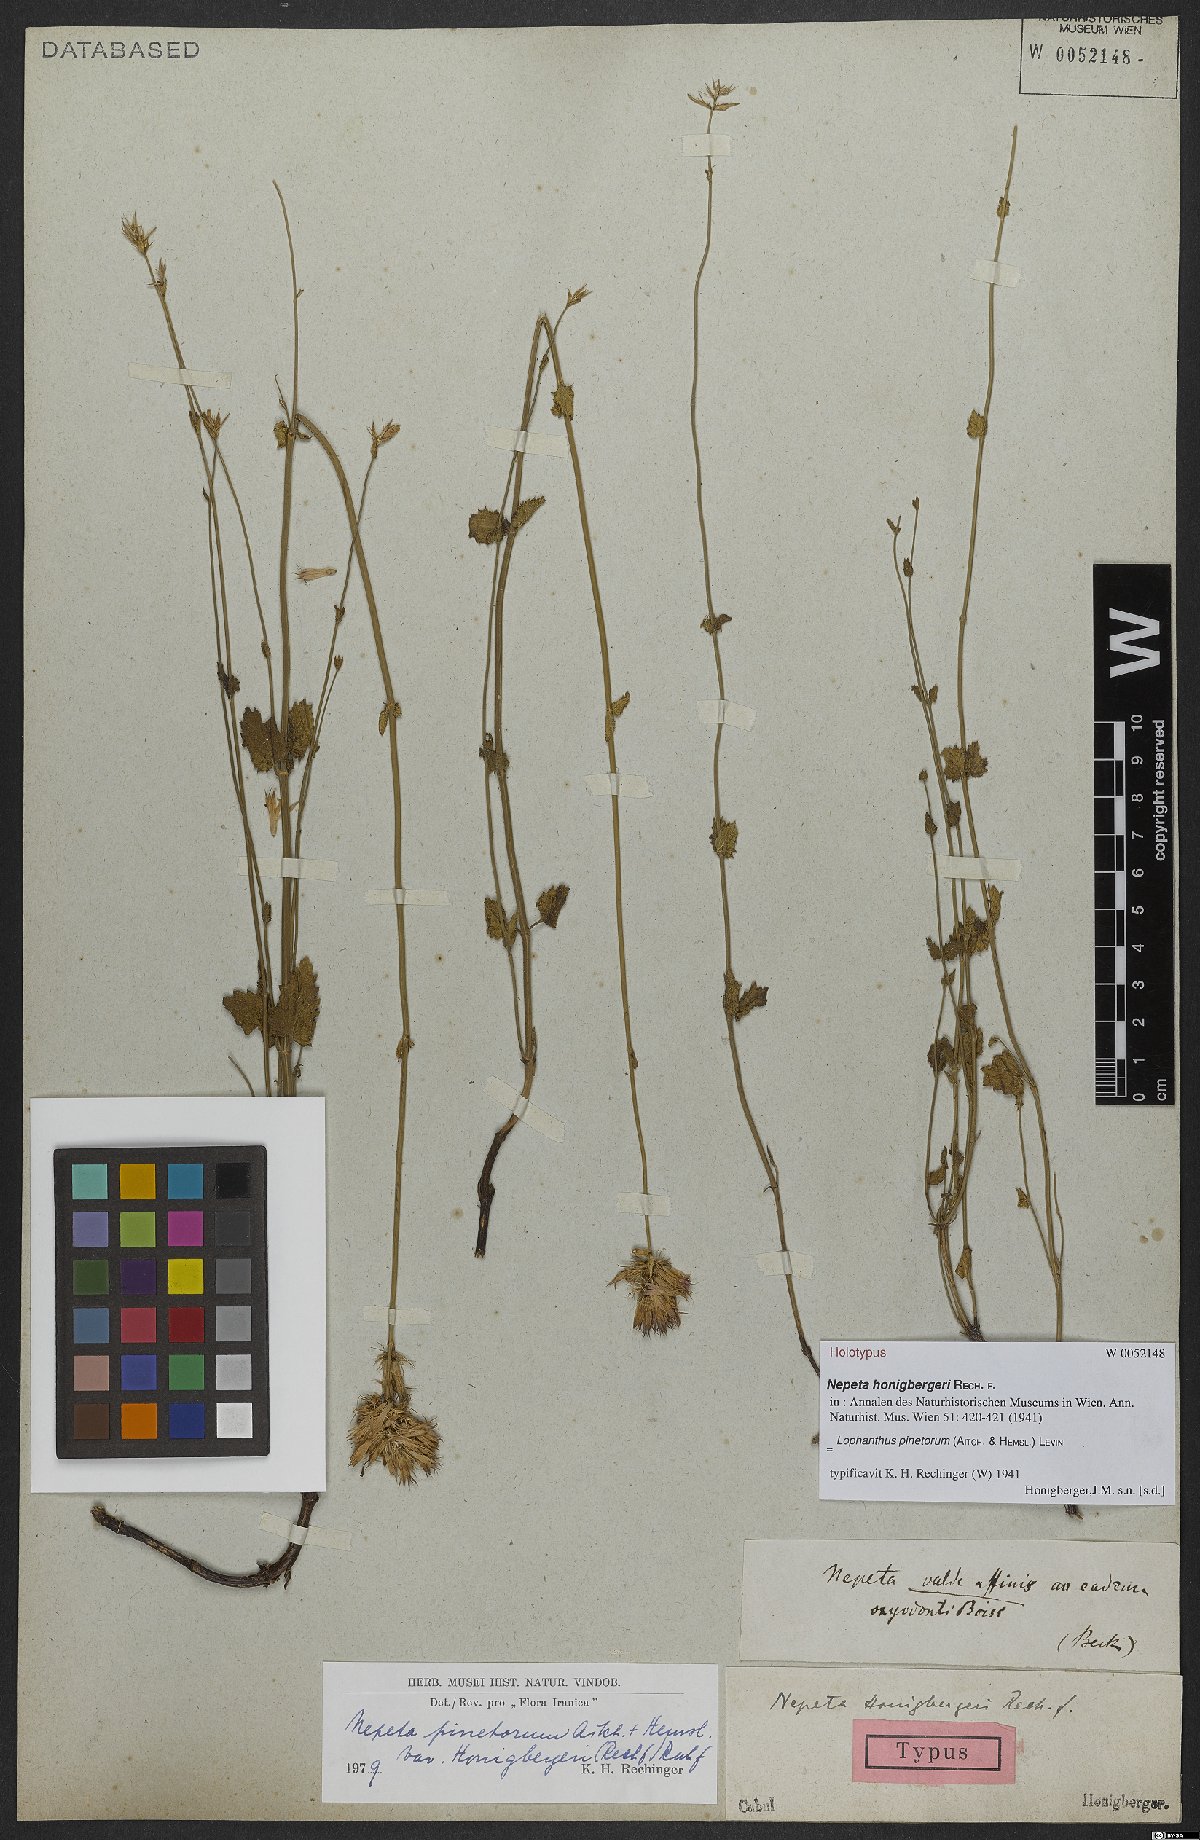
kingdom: Plantae
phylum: Tracheophyta
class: Magnoliopsida
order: Lamiales
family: Lamiaceae
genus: Nepeta
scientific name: Nepeta pinetorum
